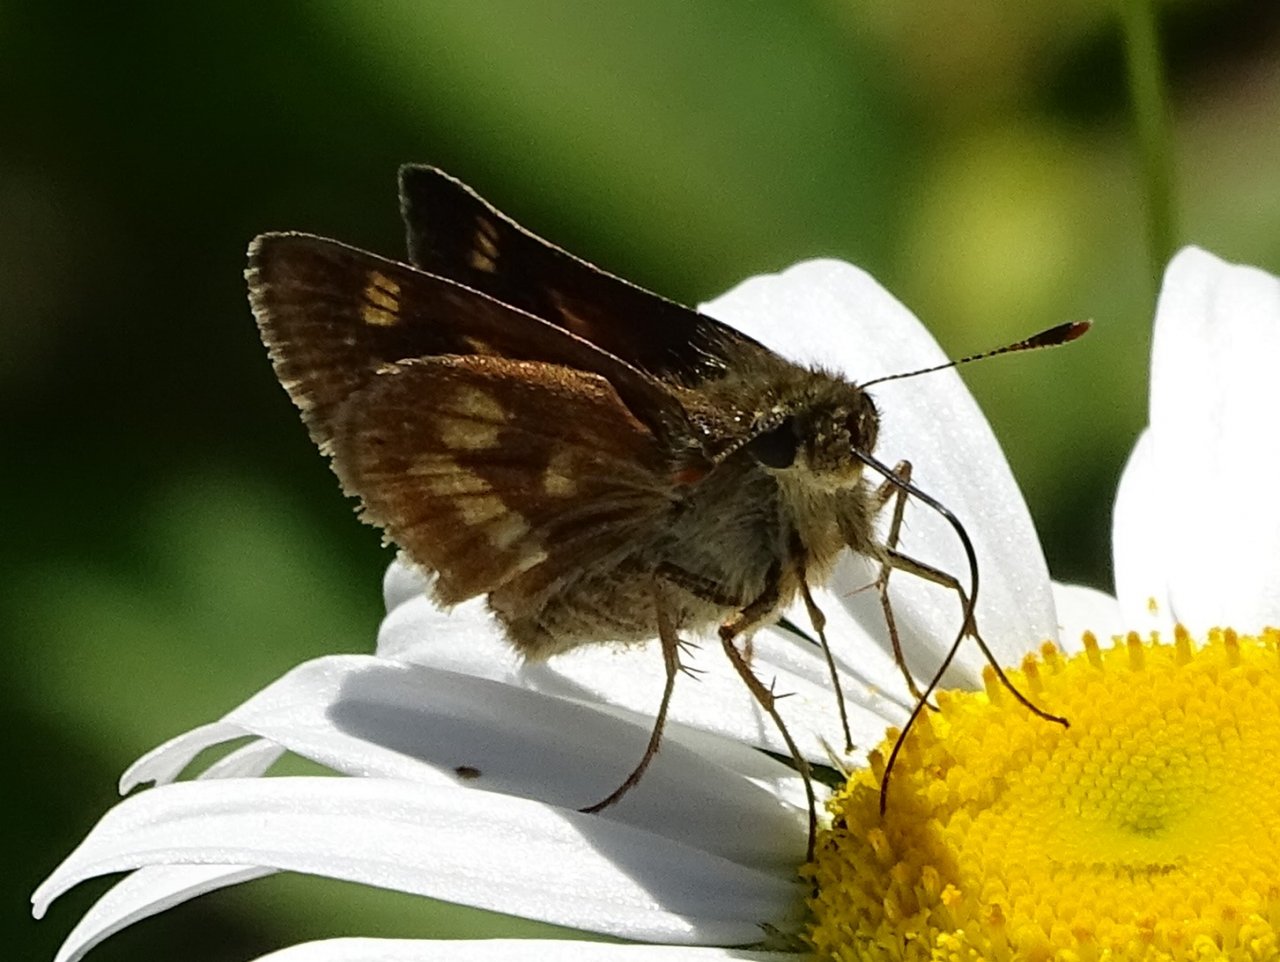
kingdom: Animalia
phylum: Arthropoda
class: Insecta
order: Lepidoptera
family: Hesperiidae
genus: Polites
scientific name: Polites
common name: Long Dash Skipper
